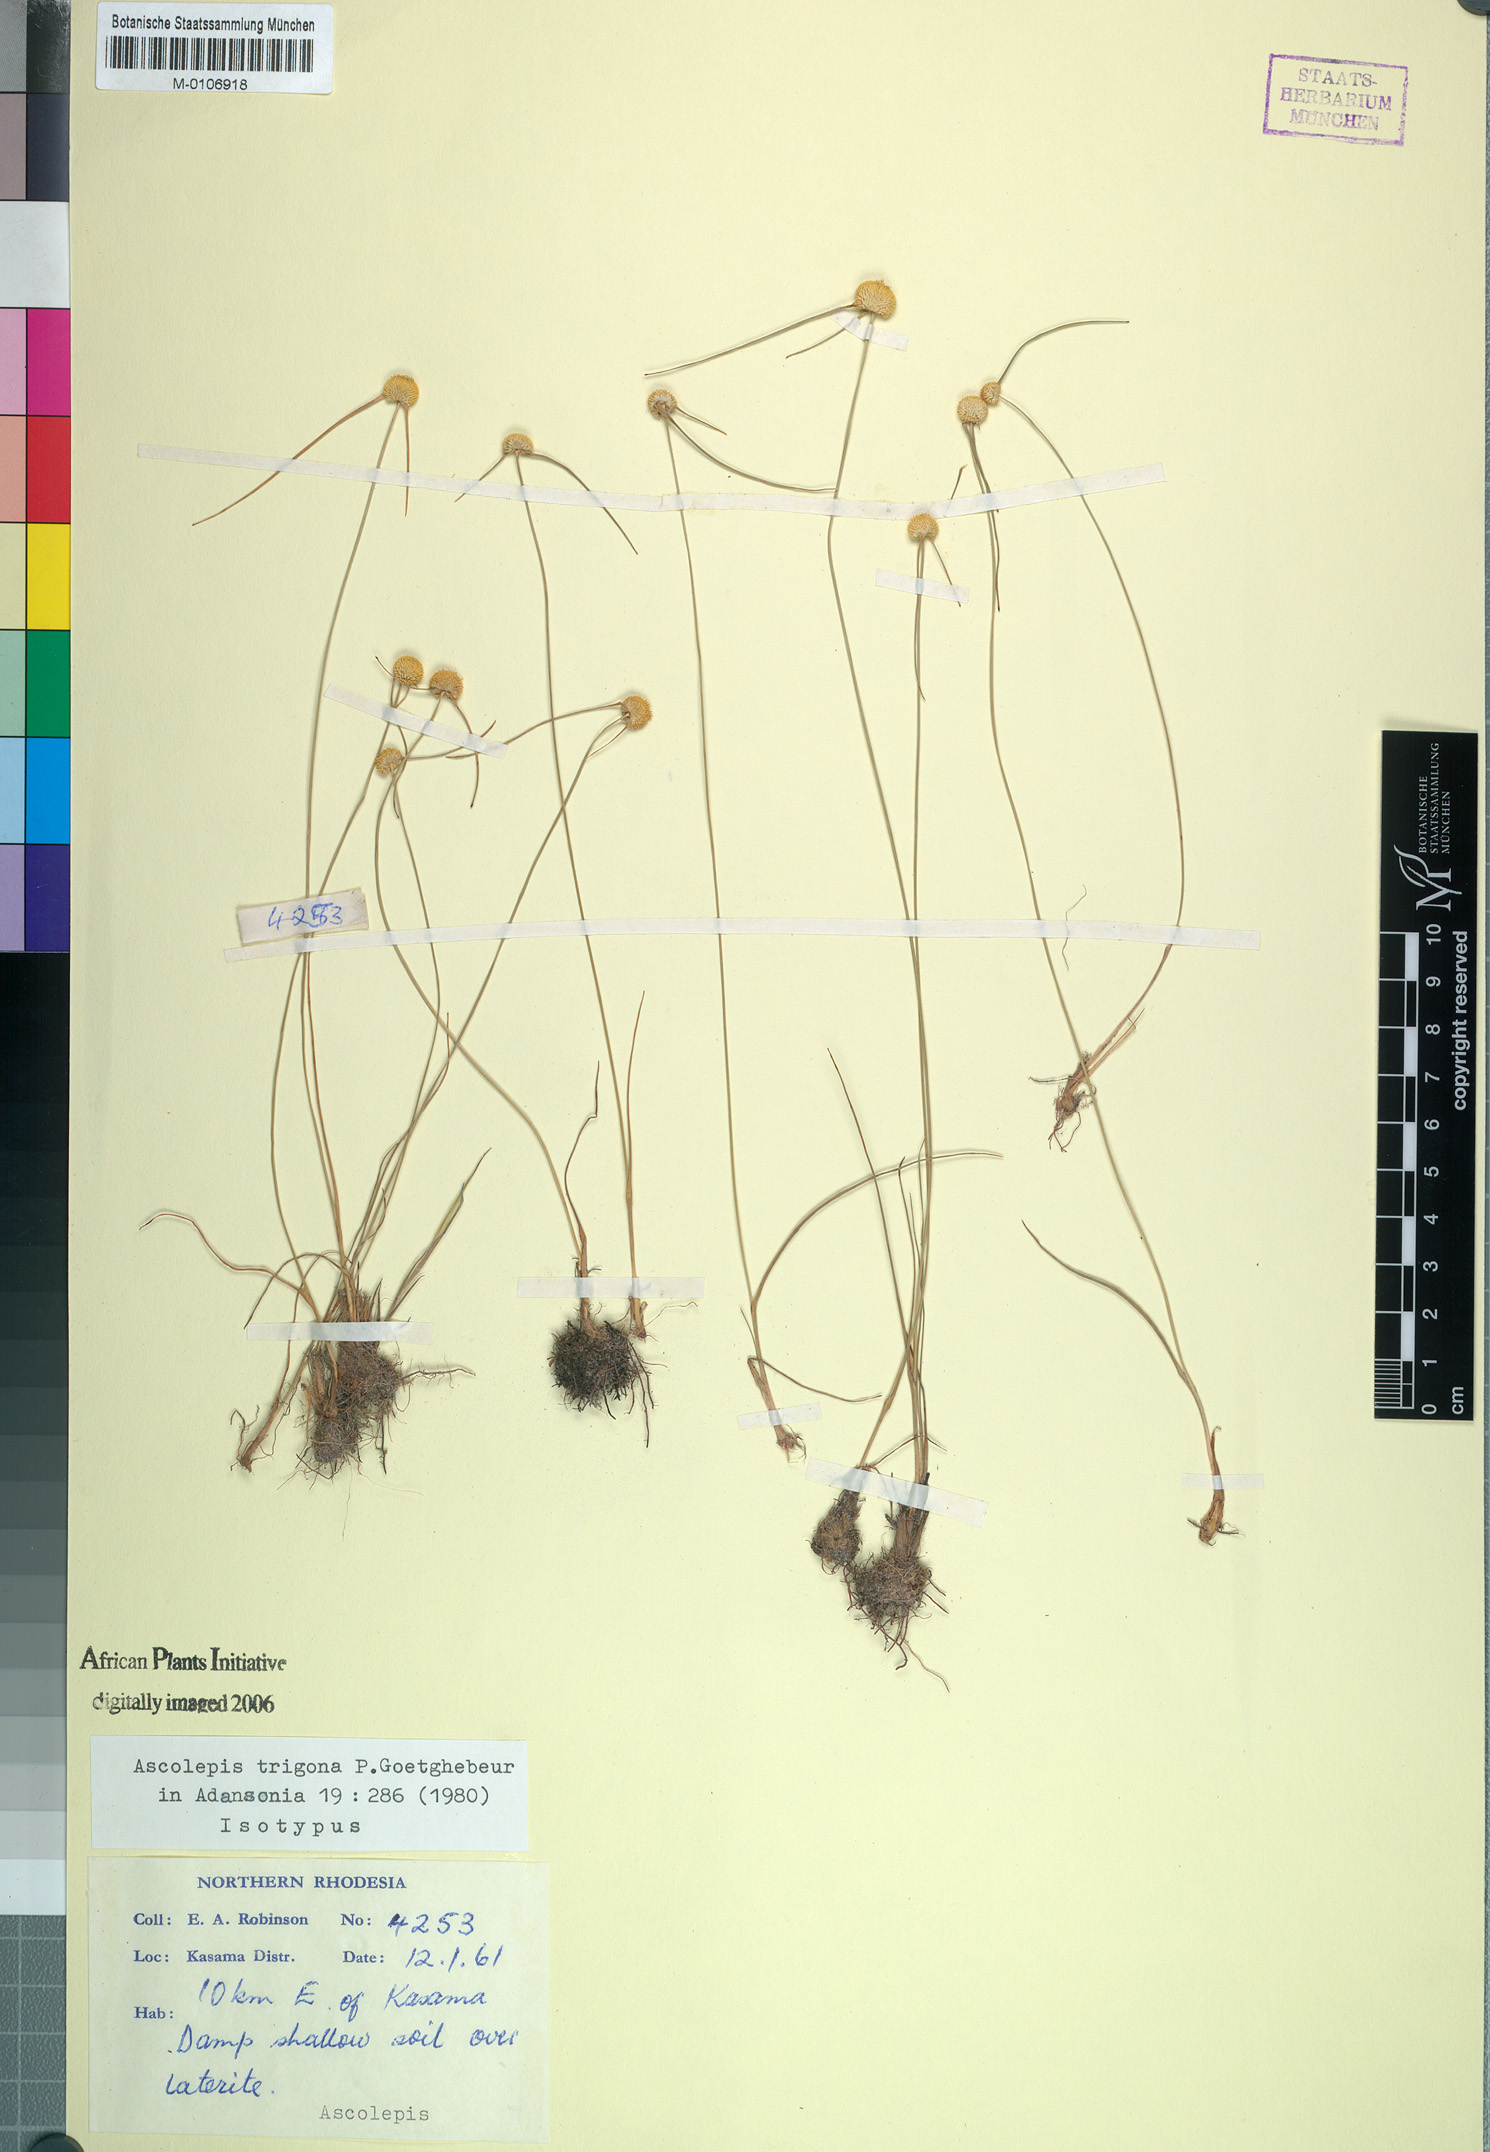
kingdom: Plantae
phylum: Tracheophyta
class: Liliopsida
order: Poales
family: Cyperaceae
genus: Cyperus
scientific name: Cyperus ascotrigonus
